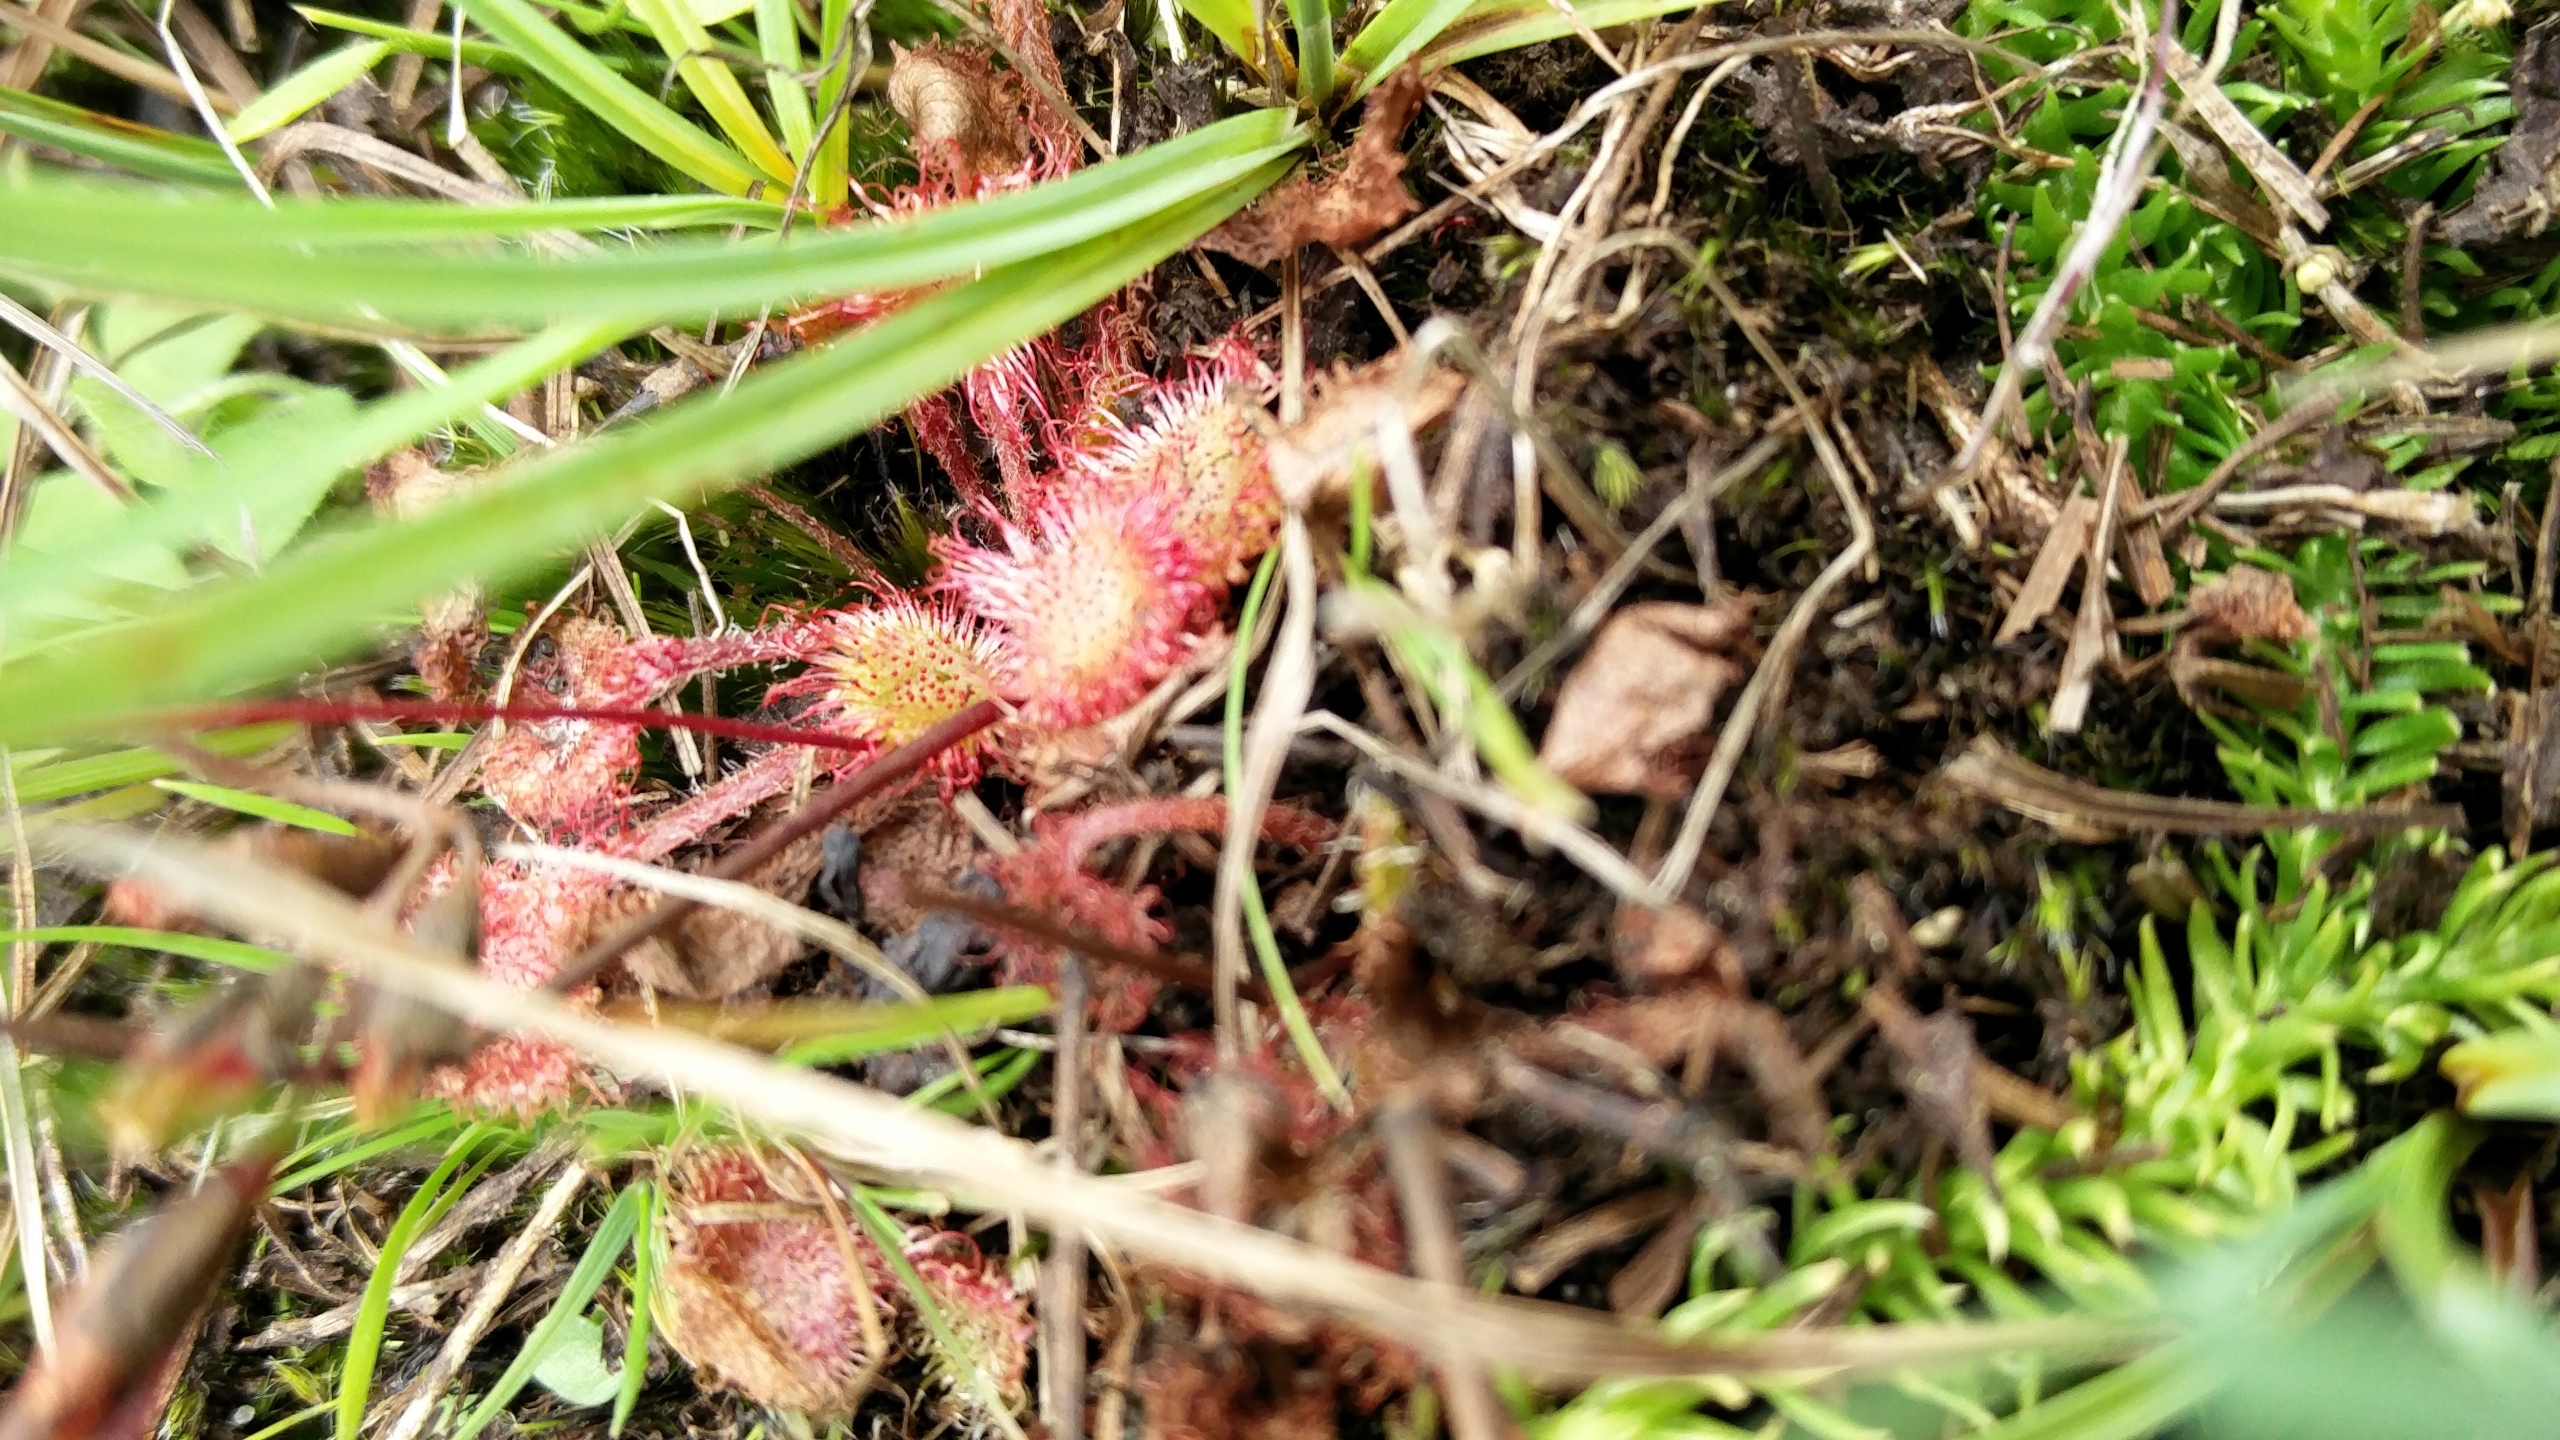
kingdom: Plantae
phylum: Tracheophyta
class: Magnoliopsida
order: Caryophyllales
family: Droseraceae
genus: Drosera
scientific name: Drosera rotundifolia
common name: Rundbladet soldug
